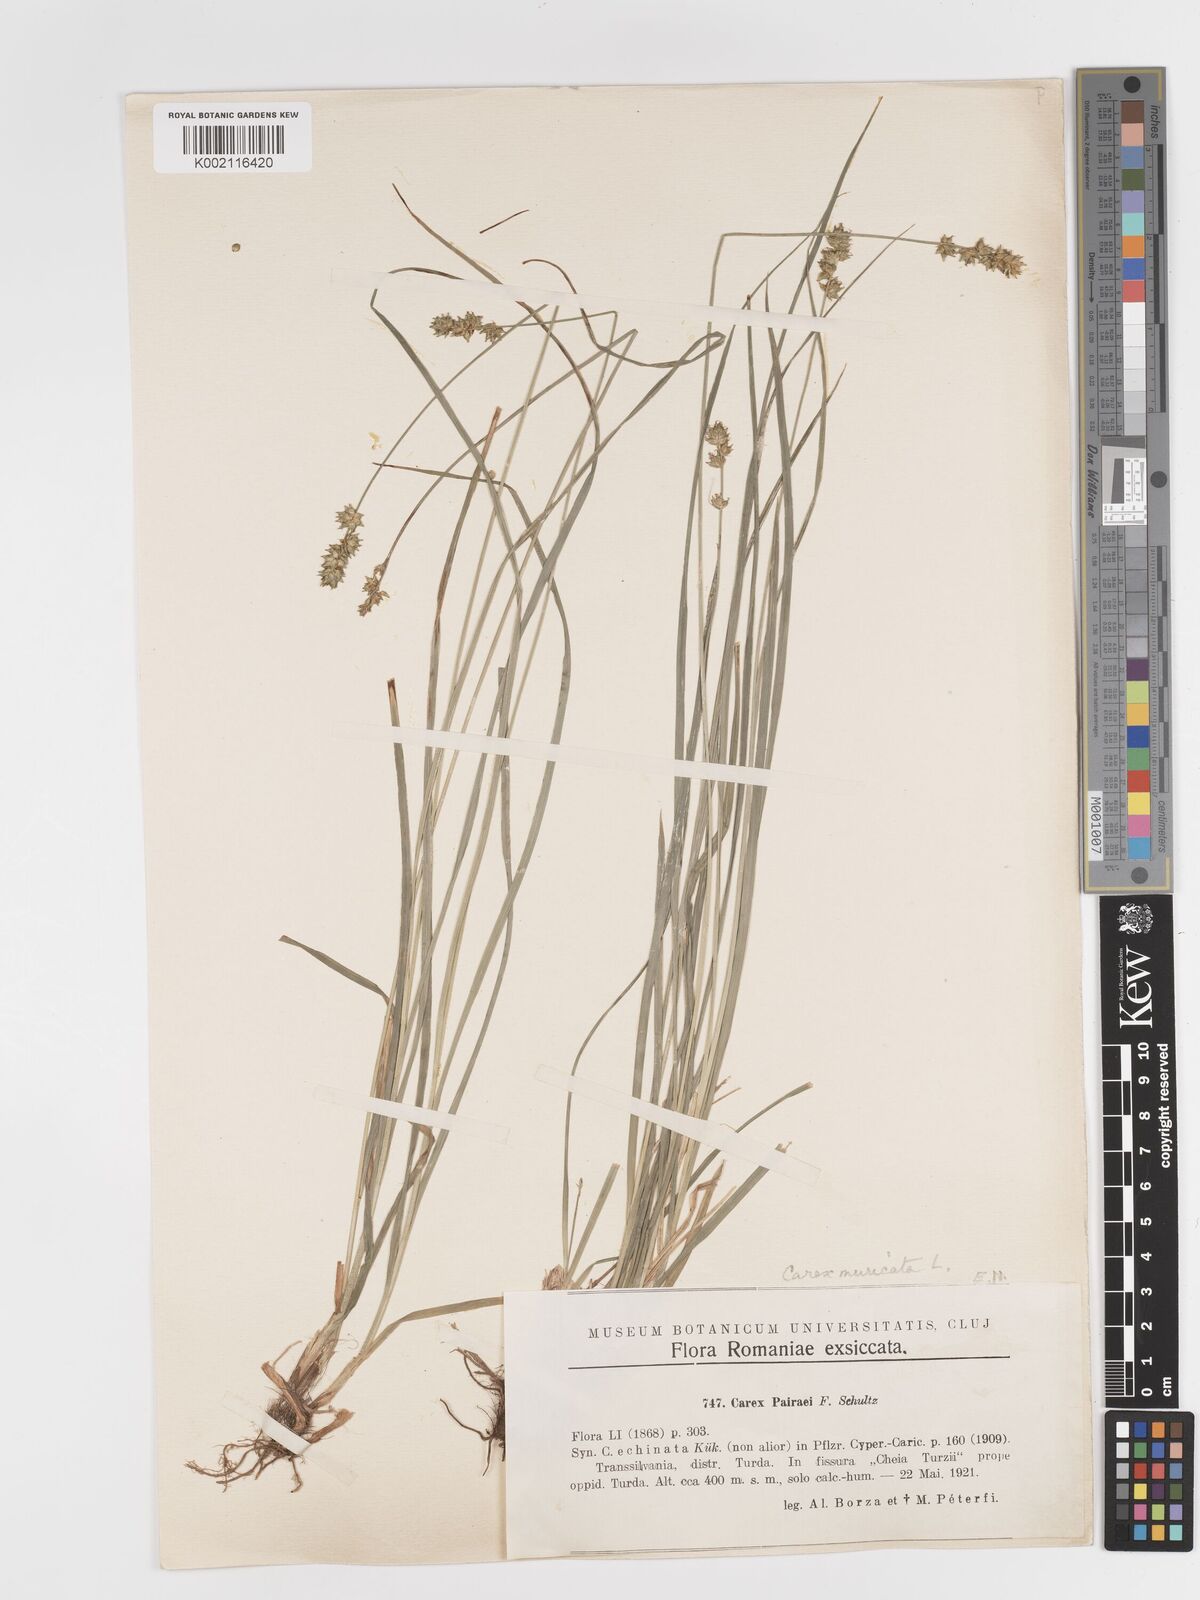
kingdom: Plantae
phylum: Tracheophyta
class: Liliopsida
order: Poales
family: Cyperaceae
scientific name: Cyperaceae
